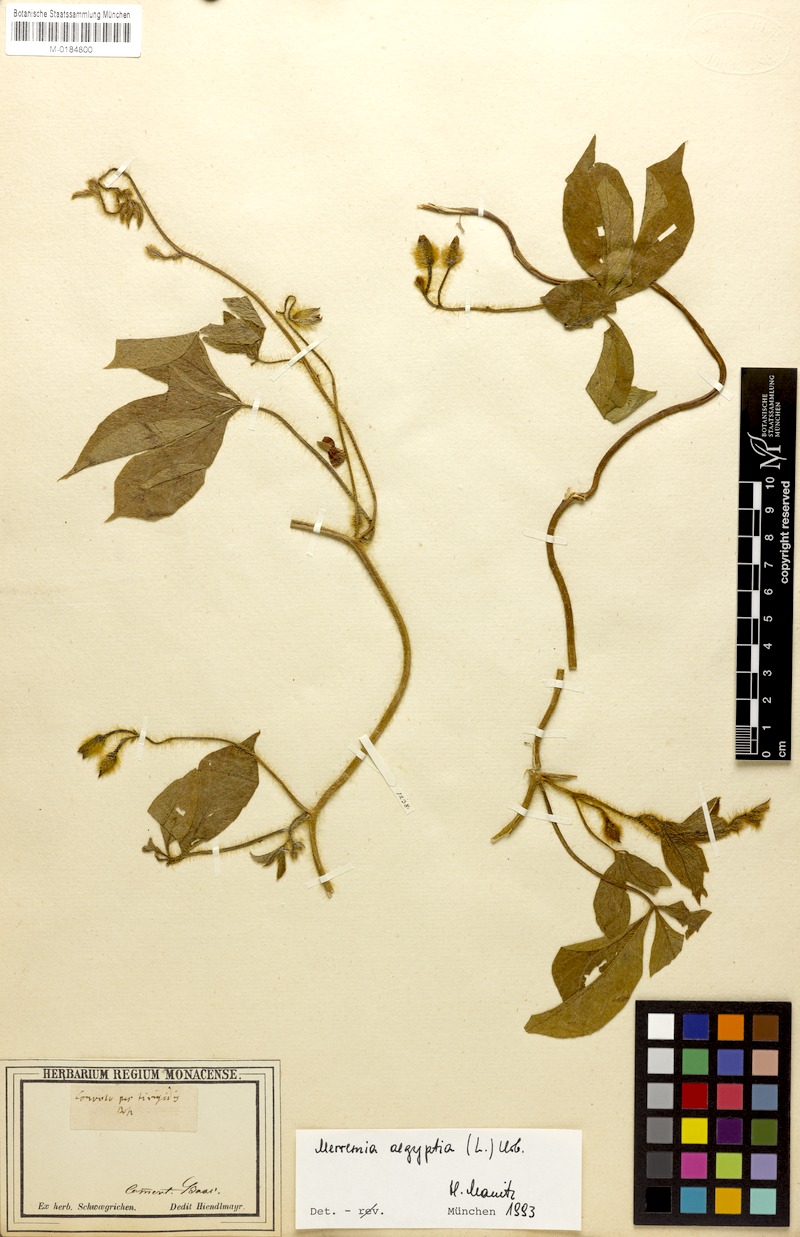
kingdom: Plantae
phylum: Tracheophyta
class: Magnoliopsida
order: Solanales
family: Convolvulaceae
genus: Distimake
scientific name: Distimake aegyptius
